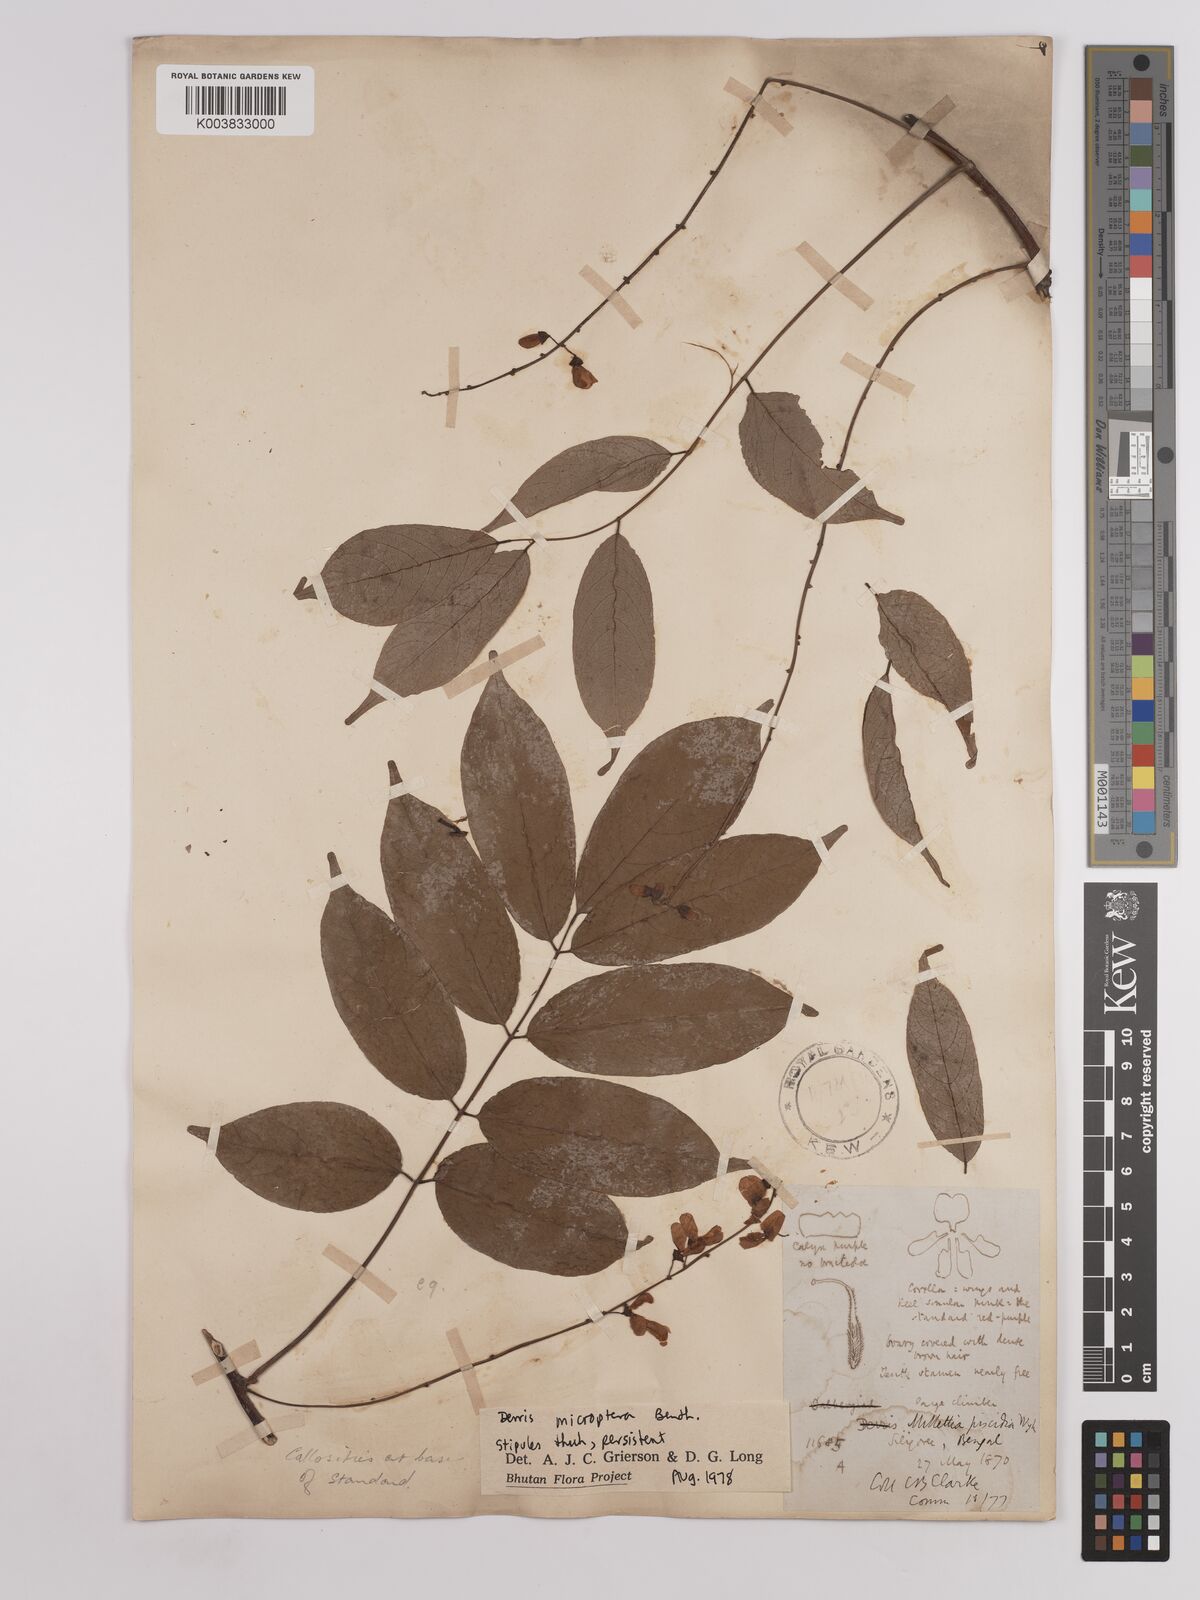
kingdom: Plantae
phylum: Tracheophyta
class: Magnoliopsida
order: Fabales
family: Fabaceae
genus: Derris
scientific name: Derris monticola
